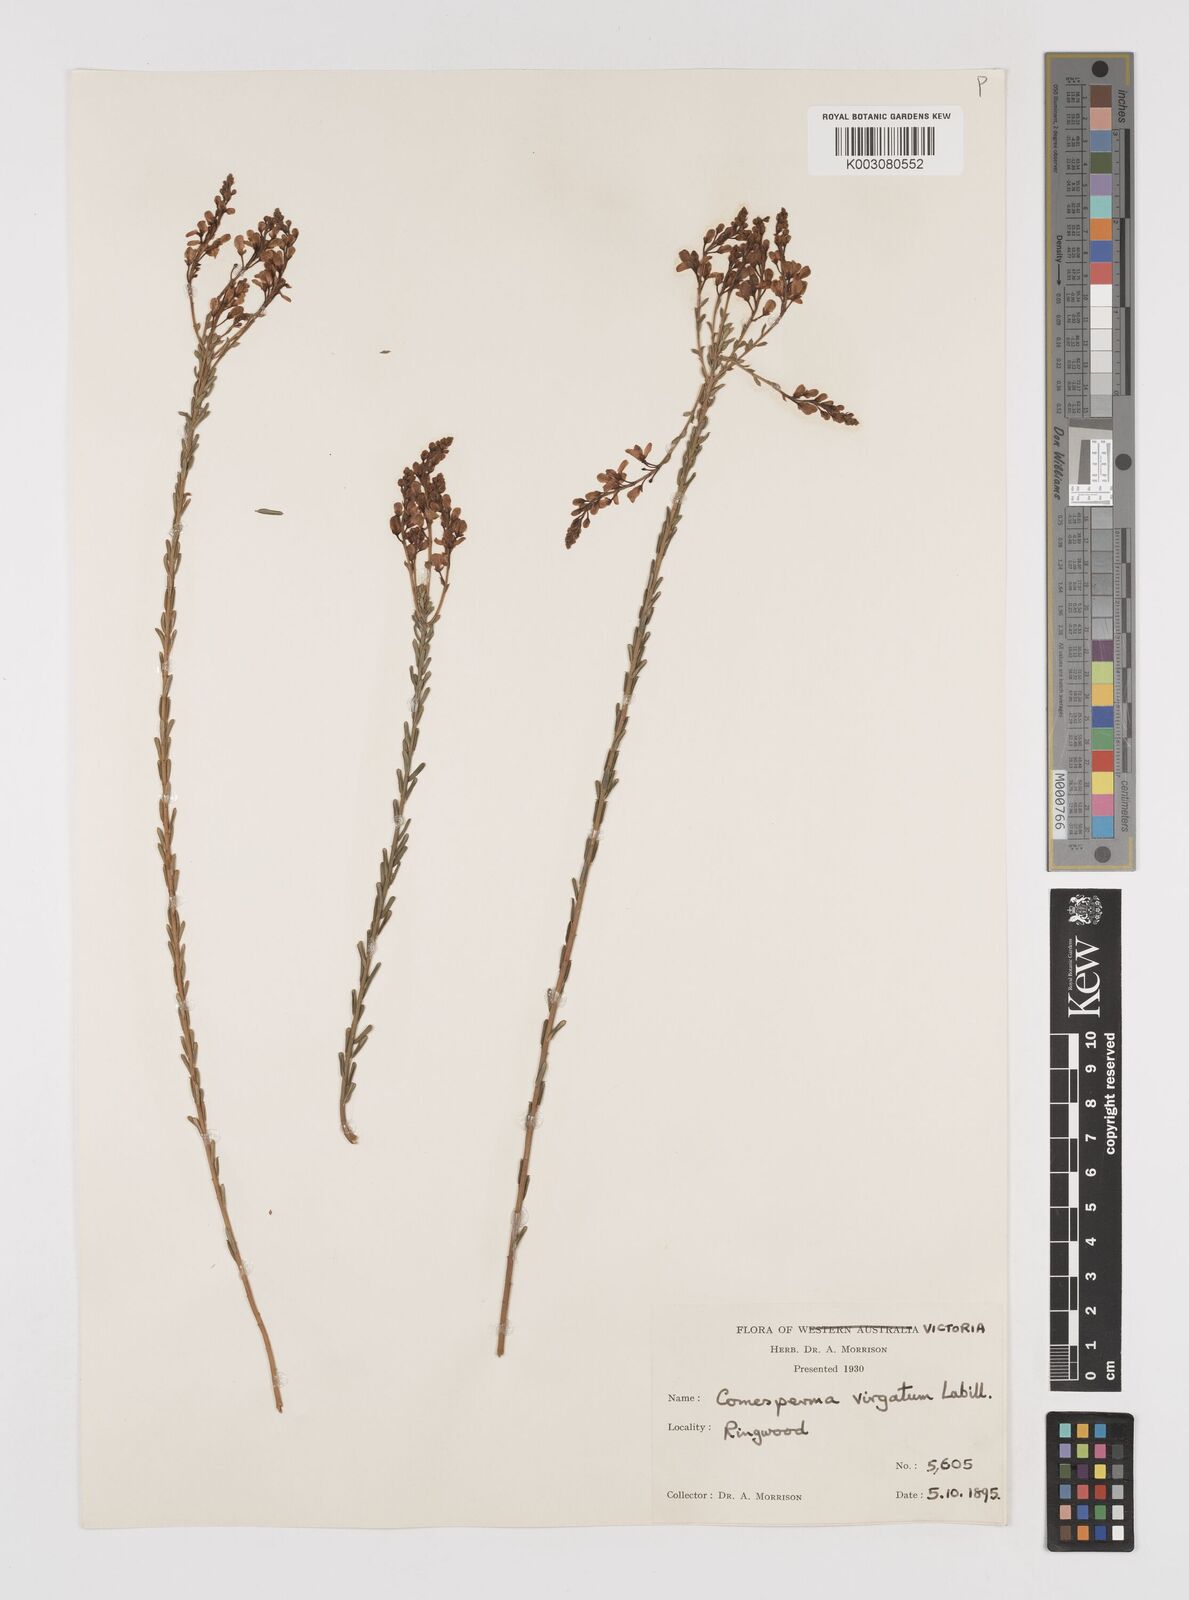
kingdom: Plantae
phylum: Tracheophyta
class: Magnoliopsida
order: Fabales
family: Polygalaceae
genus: Comesperma
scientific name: Comesperma virgatum
